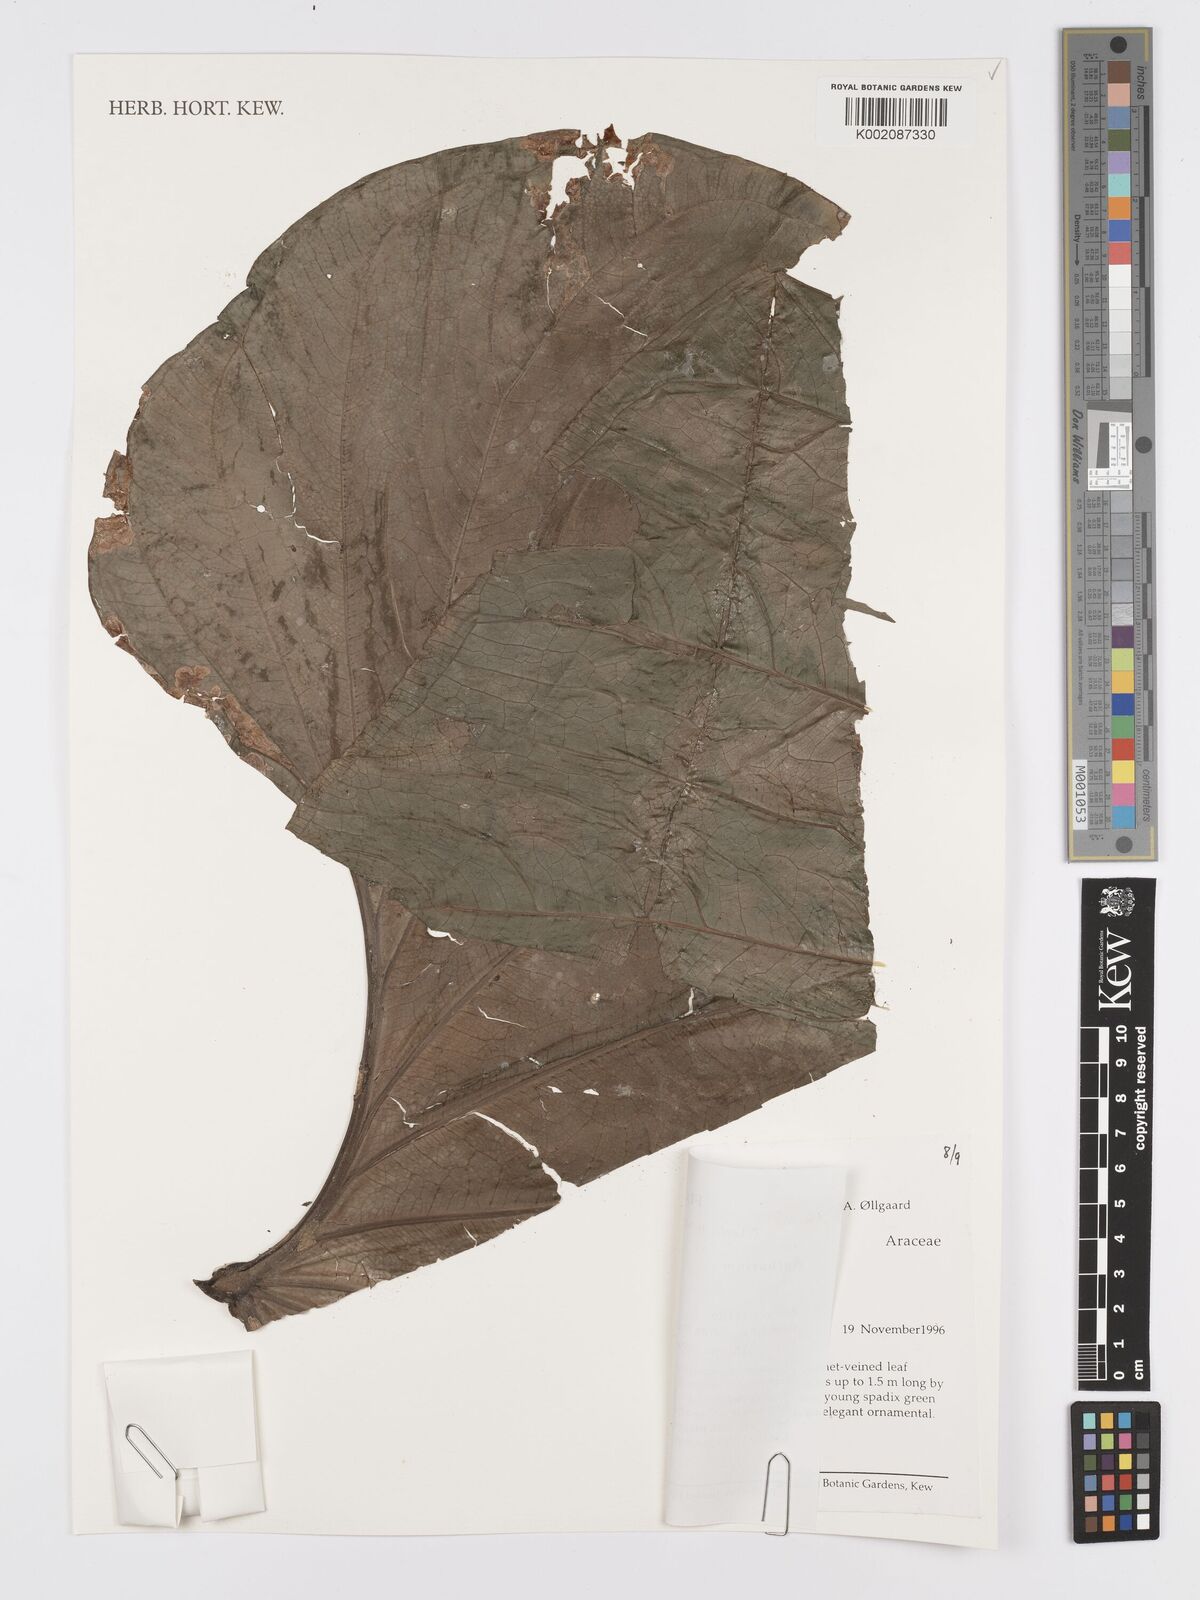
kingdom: Plantae
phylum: Tracheophyta
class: Liliopsida
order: Alismatales
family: Araceae
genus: Anthurium
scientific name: Anthurium
